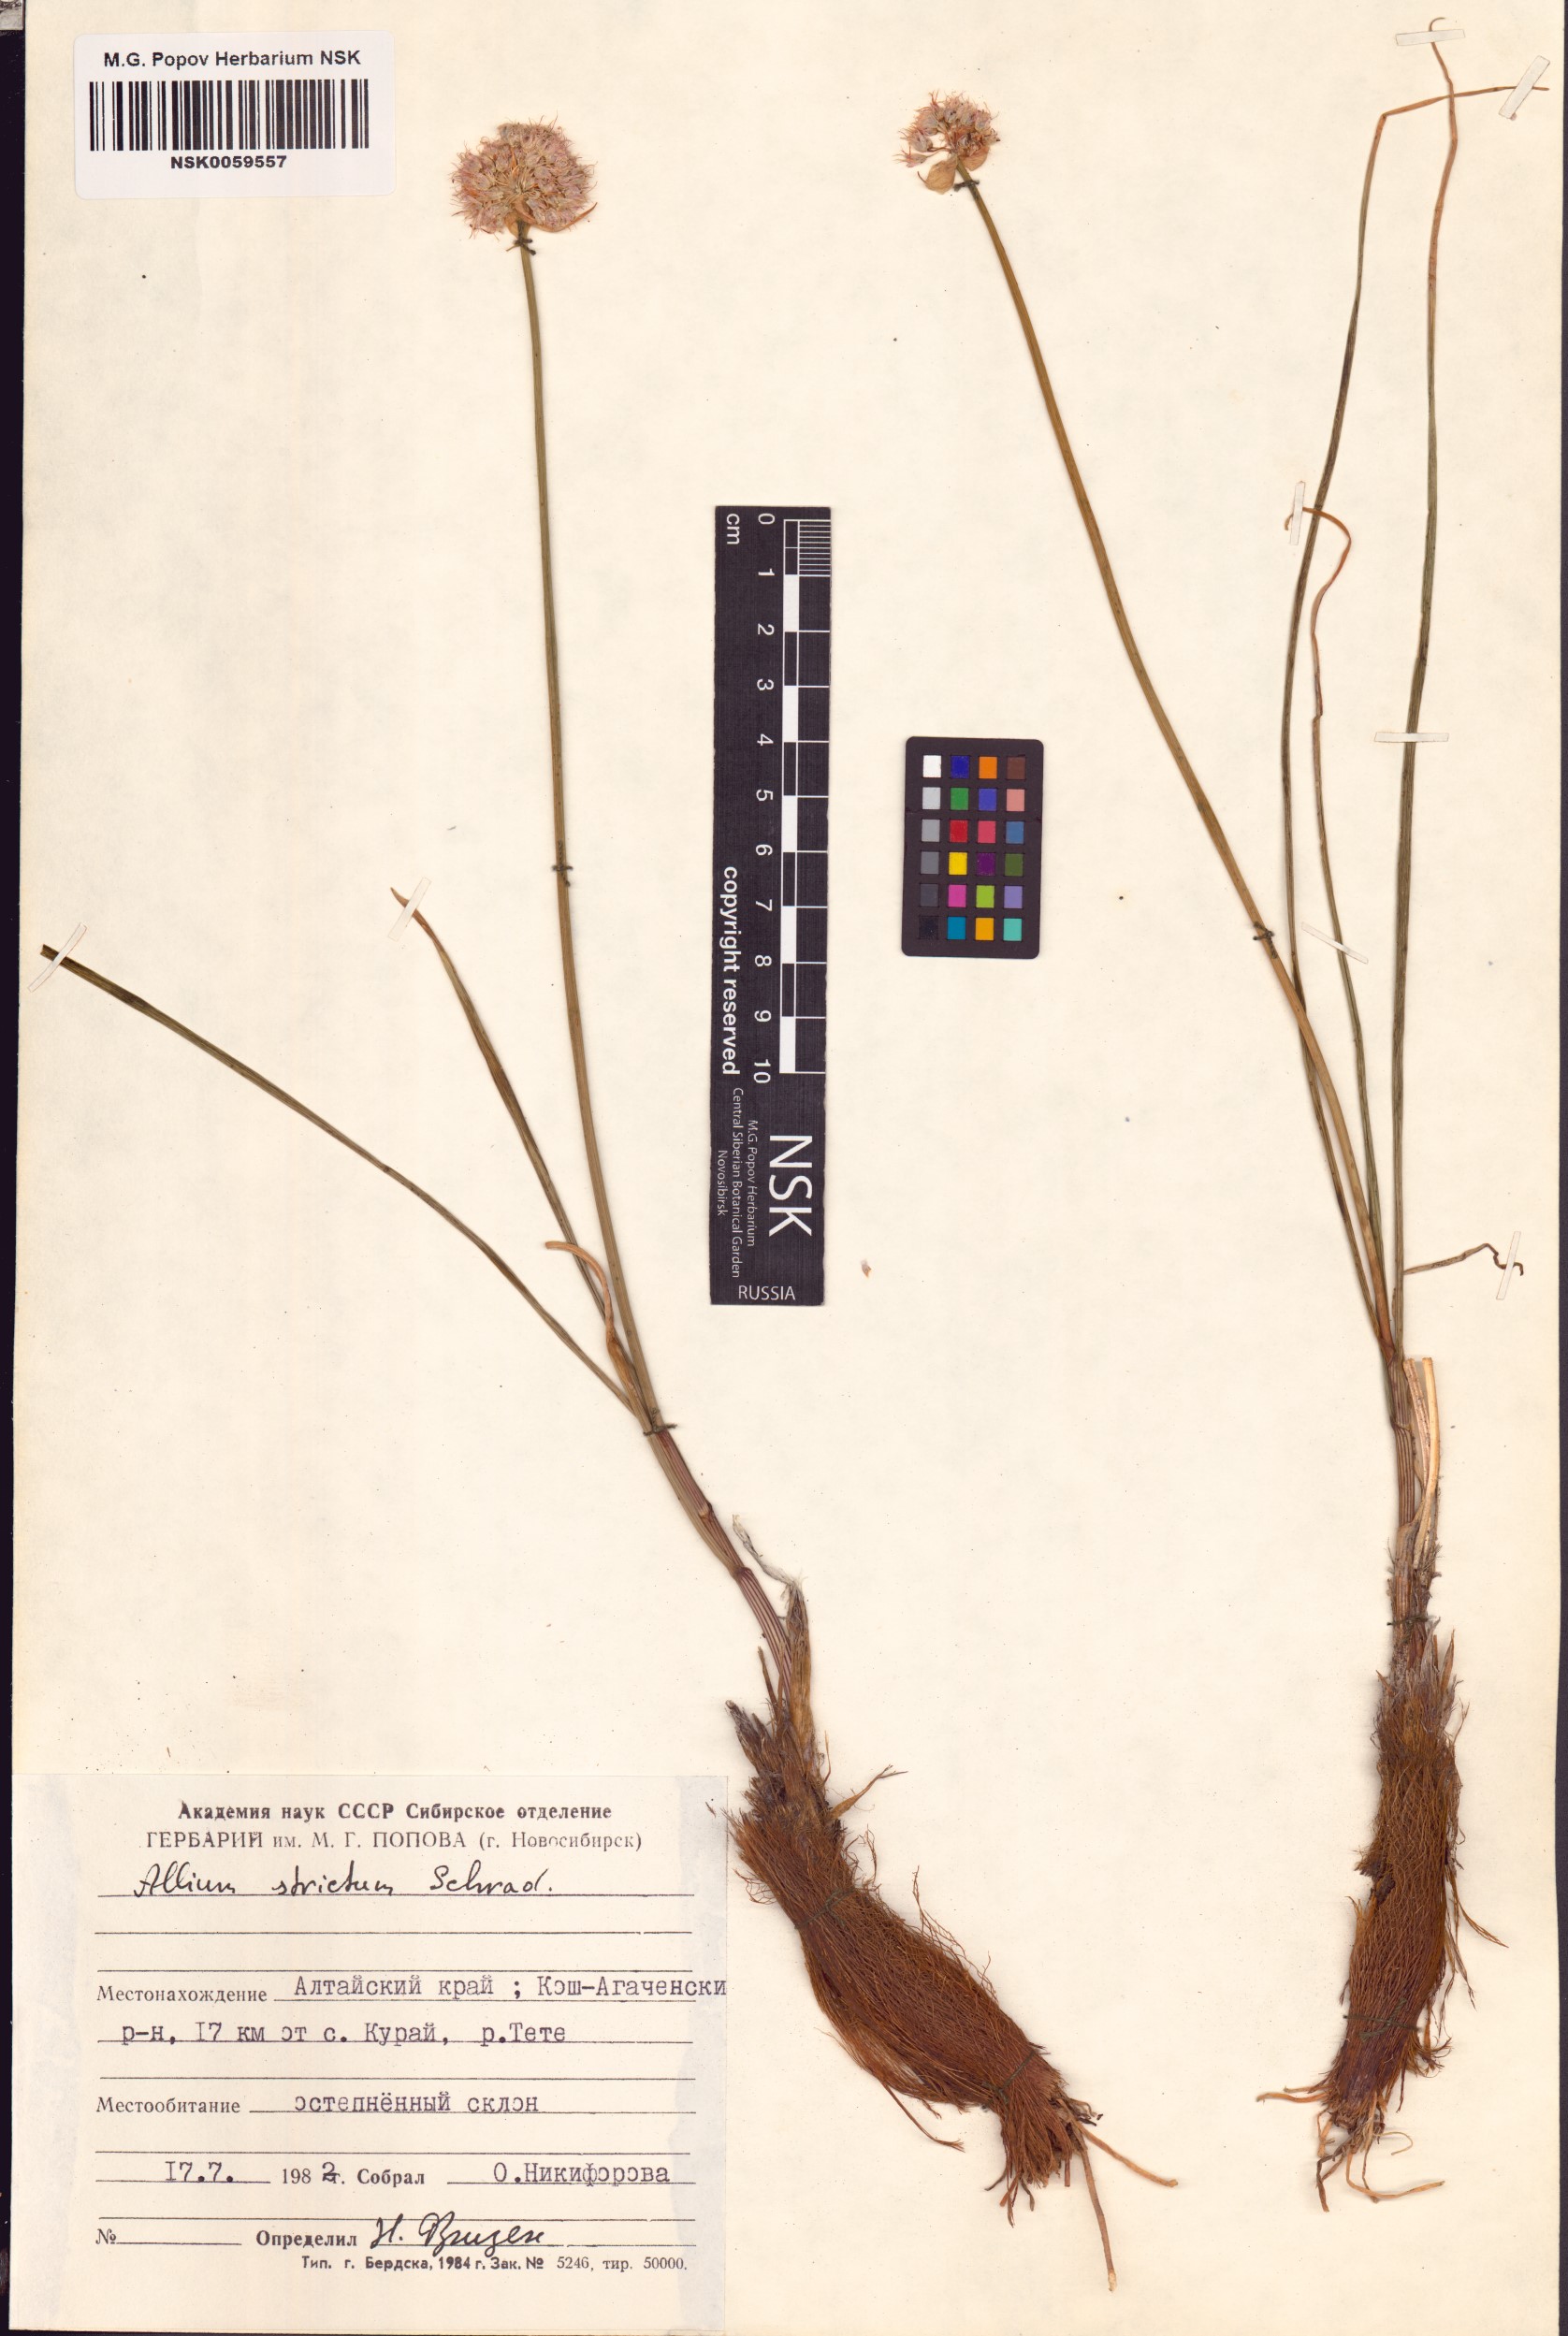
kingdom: Plantae
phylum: Tracheophyta
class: Liliopsida
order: Asparagales
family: Amaryllidaceae
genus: Allium
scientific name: Allium strictum
